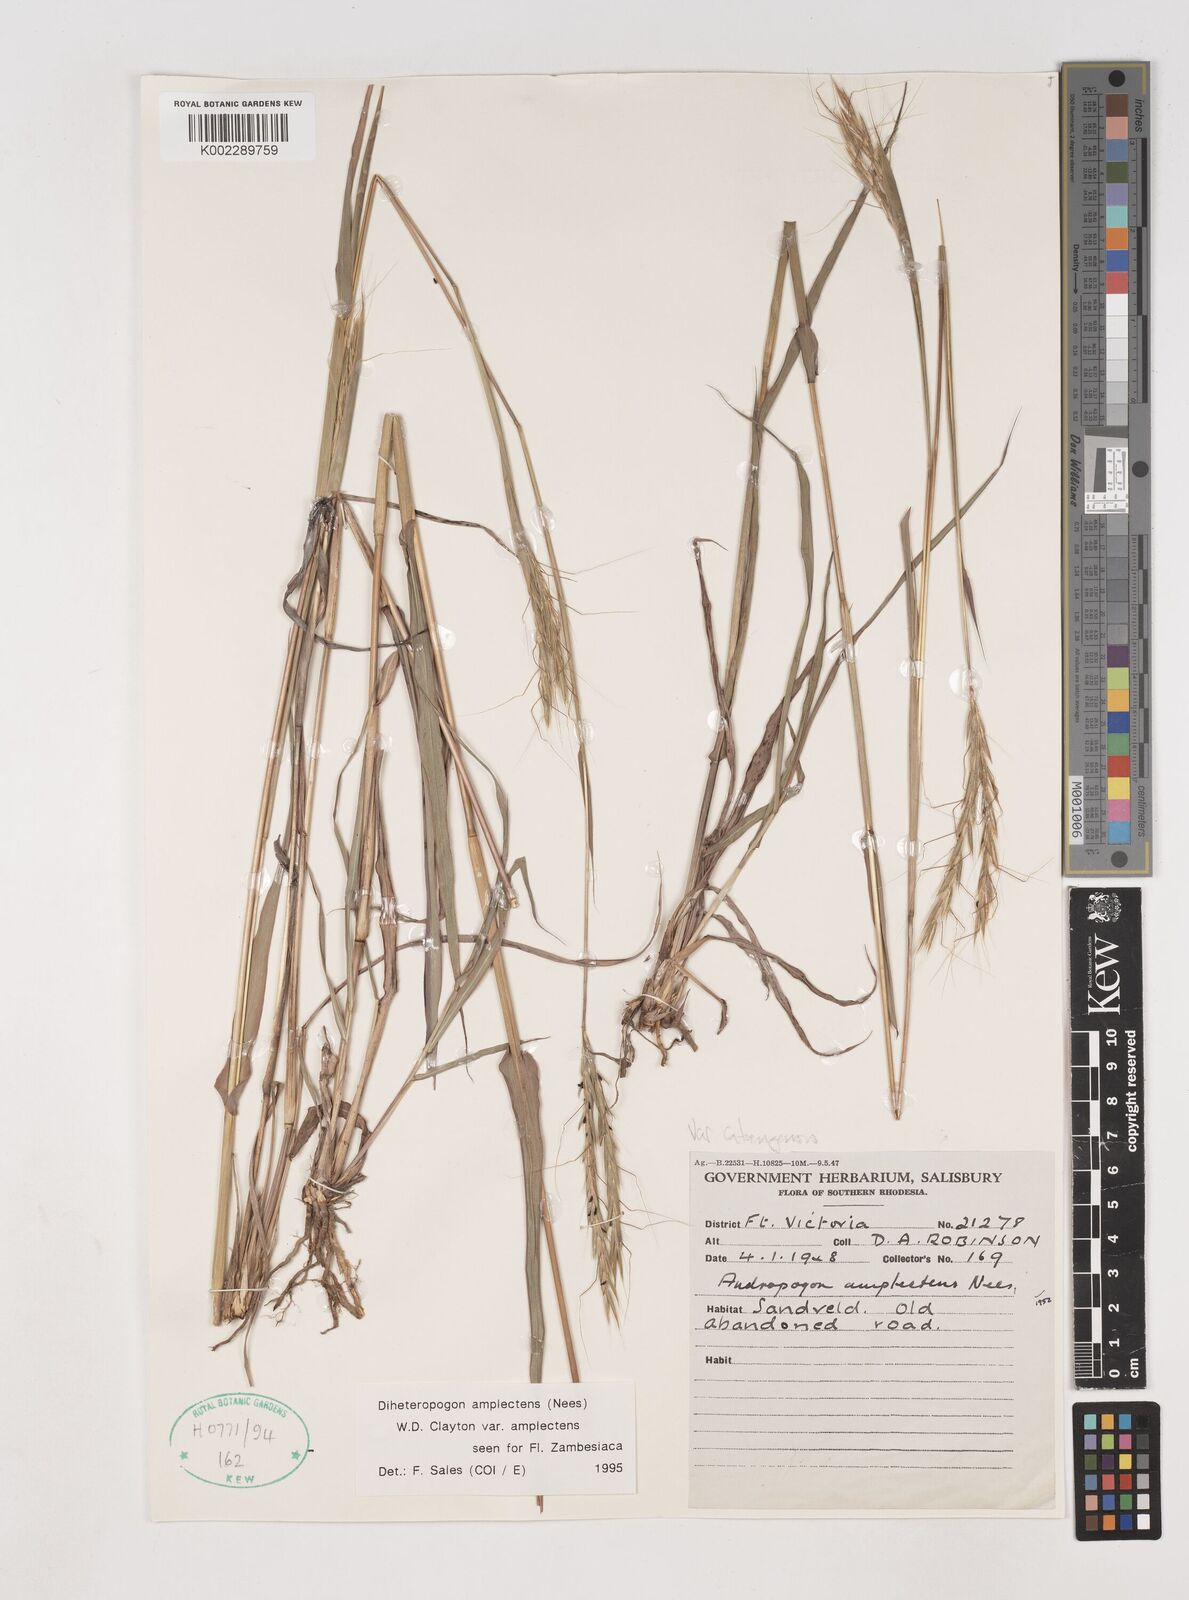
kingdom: Plantae
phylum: Tracheophyta
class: Liliopsida
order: Poales
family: Poaceae
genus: Diheteropogon
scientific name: Diheteropogon amplectens
